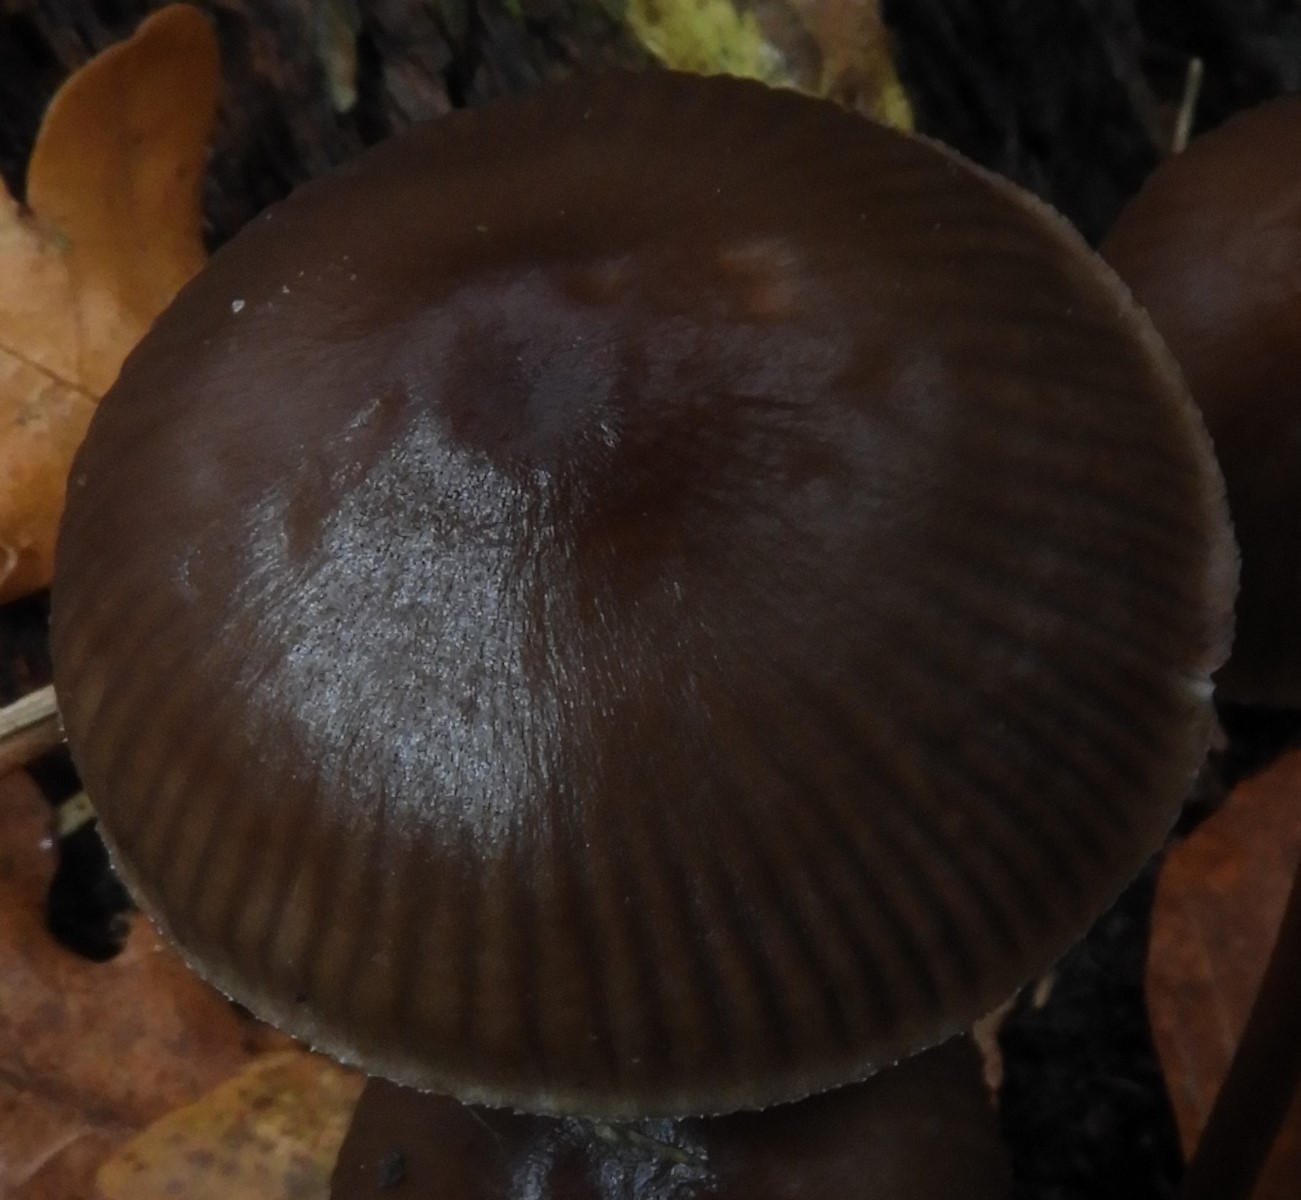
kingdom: Fungi
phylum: Basidiomycota
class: Agaricomycetes
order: Agaricales
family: Mycenaceae
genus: Mycena
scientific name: Mycena inclinata
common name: nikkende huesvamp
